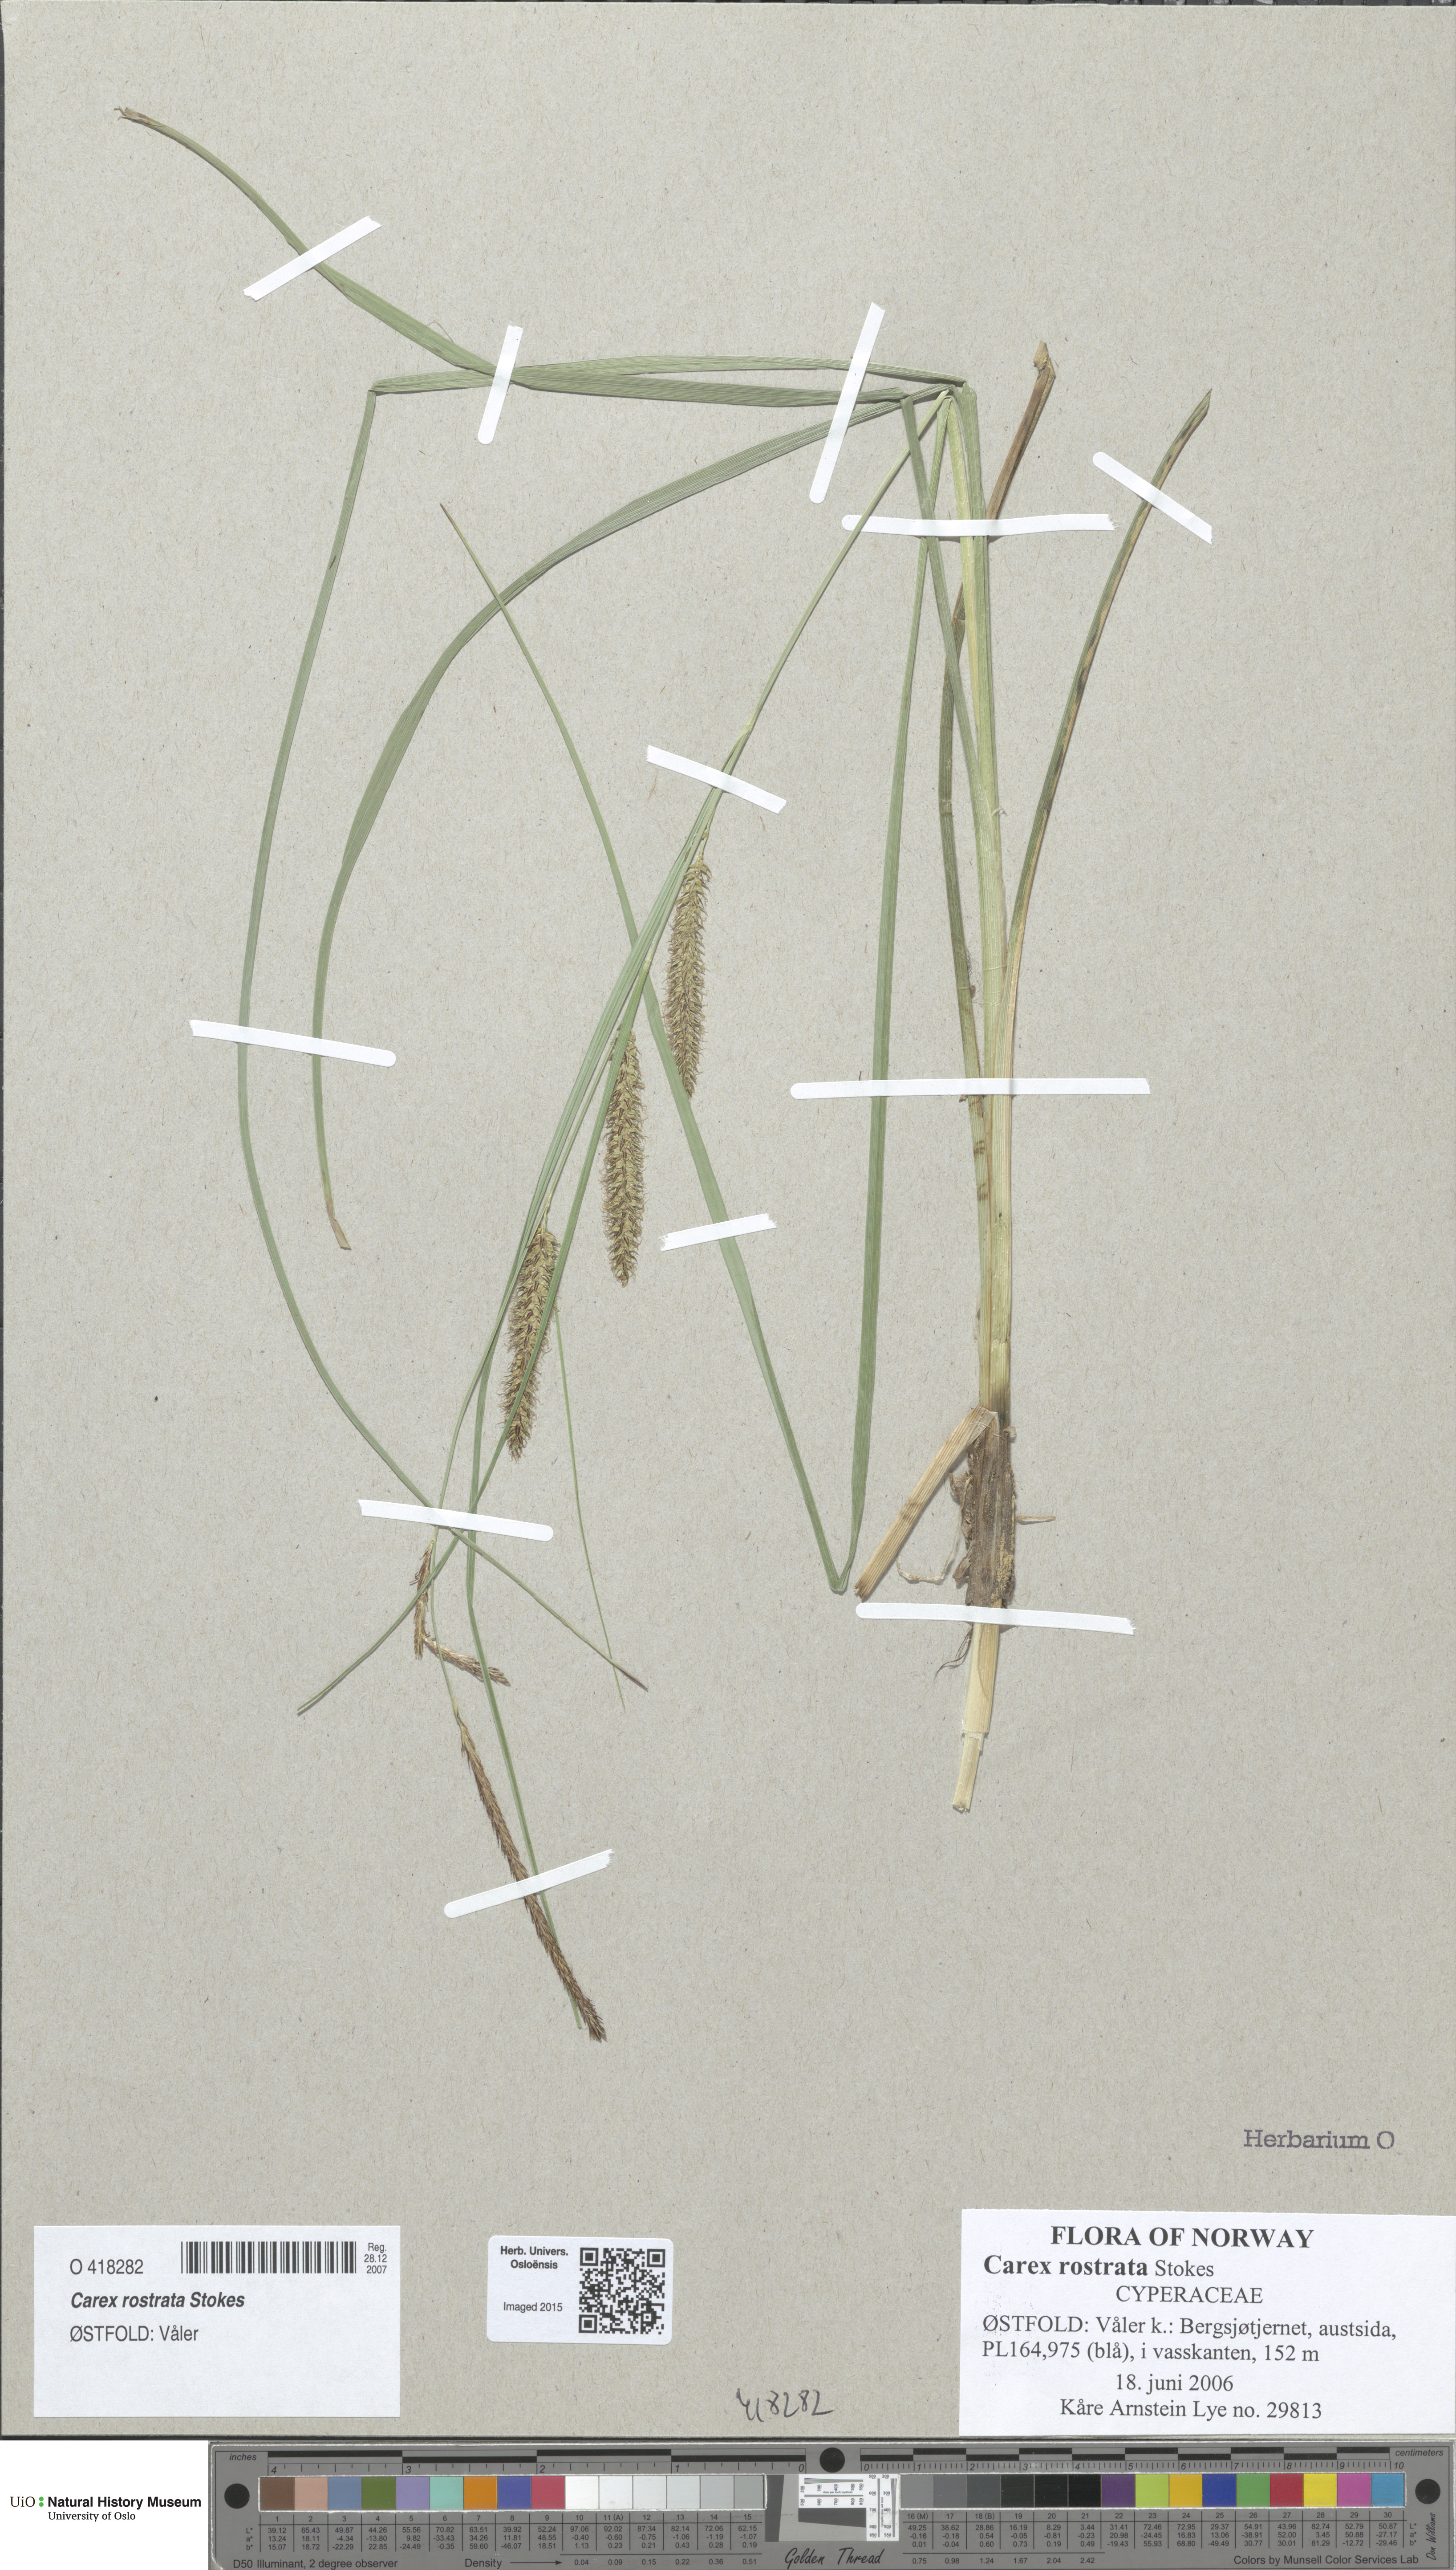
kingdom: Plantae
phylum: Tracheophyta
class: Liliopsida
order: Poales
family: Cyperaceae
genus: Carex
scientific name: Carex rostrata
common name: Bottle sedge
